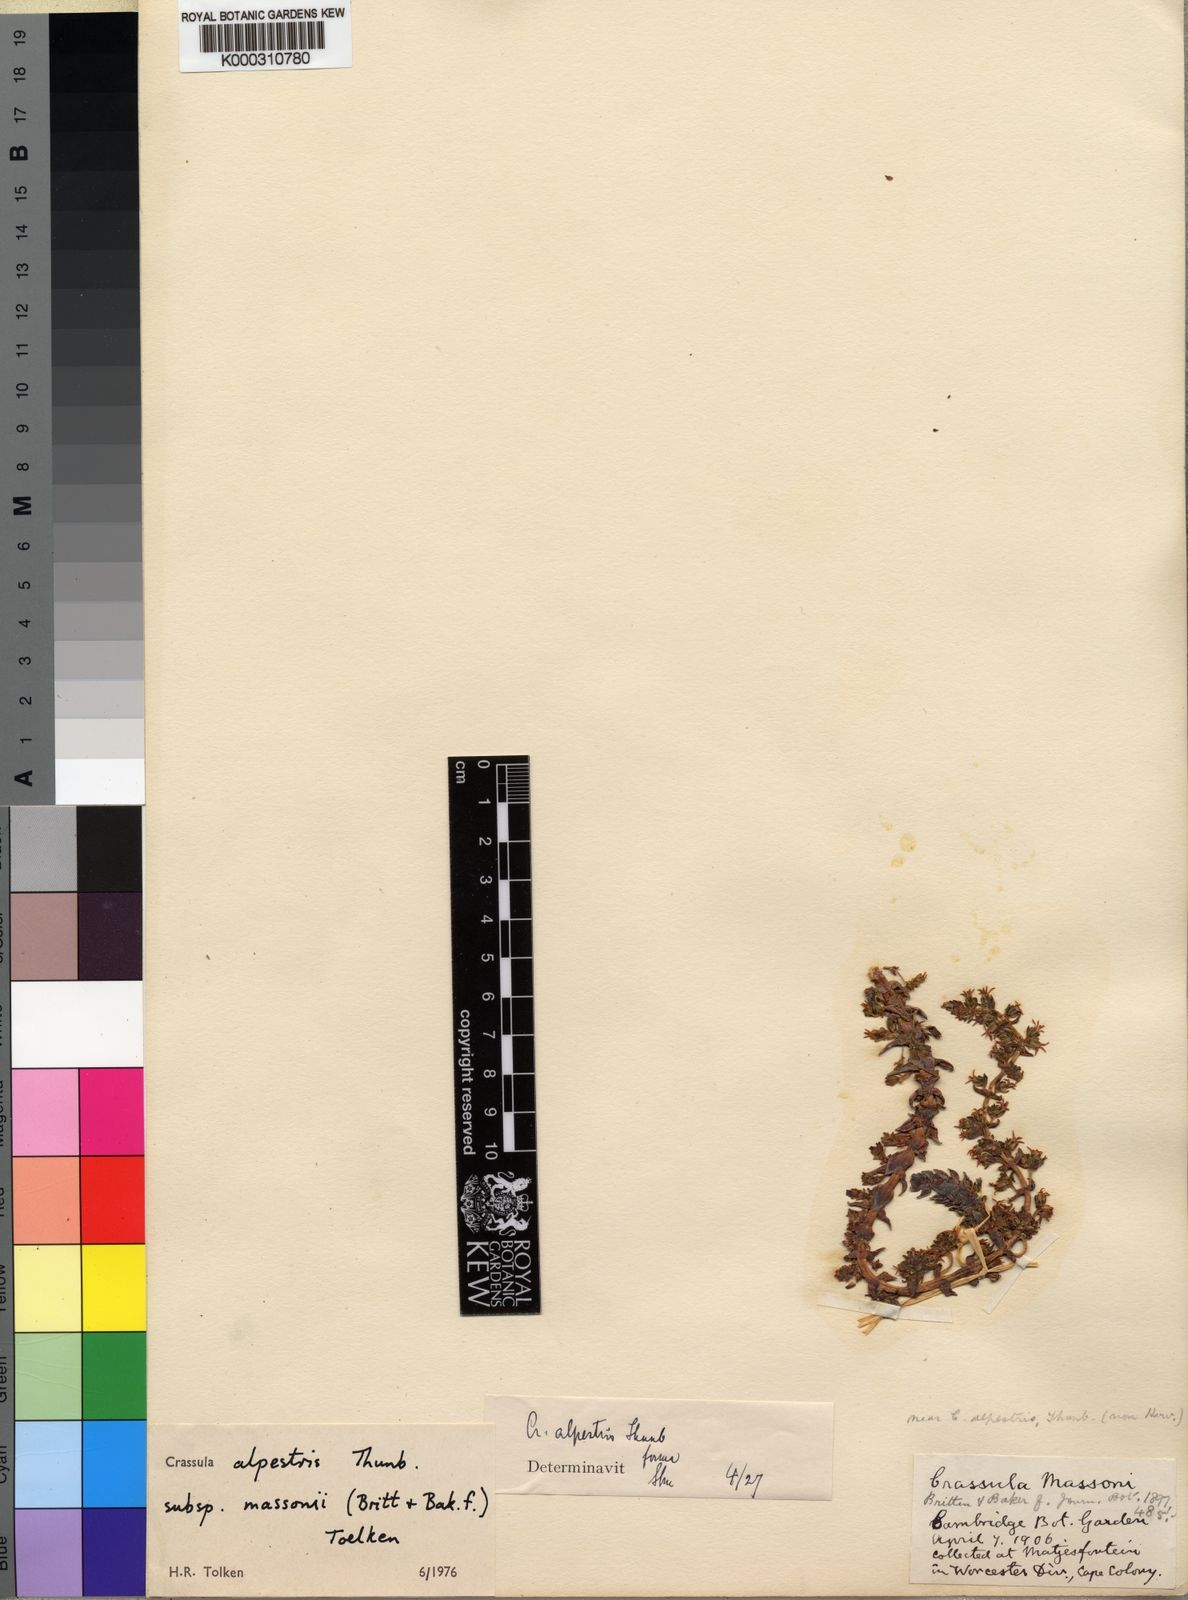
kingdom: Plantae
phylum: Tracheophyta
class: Magnoliopsida
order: Saxifragales
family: Crassulaceae
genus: Crassula
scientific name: Crassula alpestris
